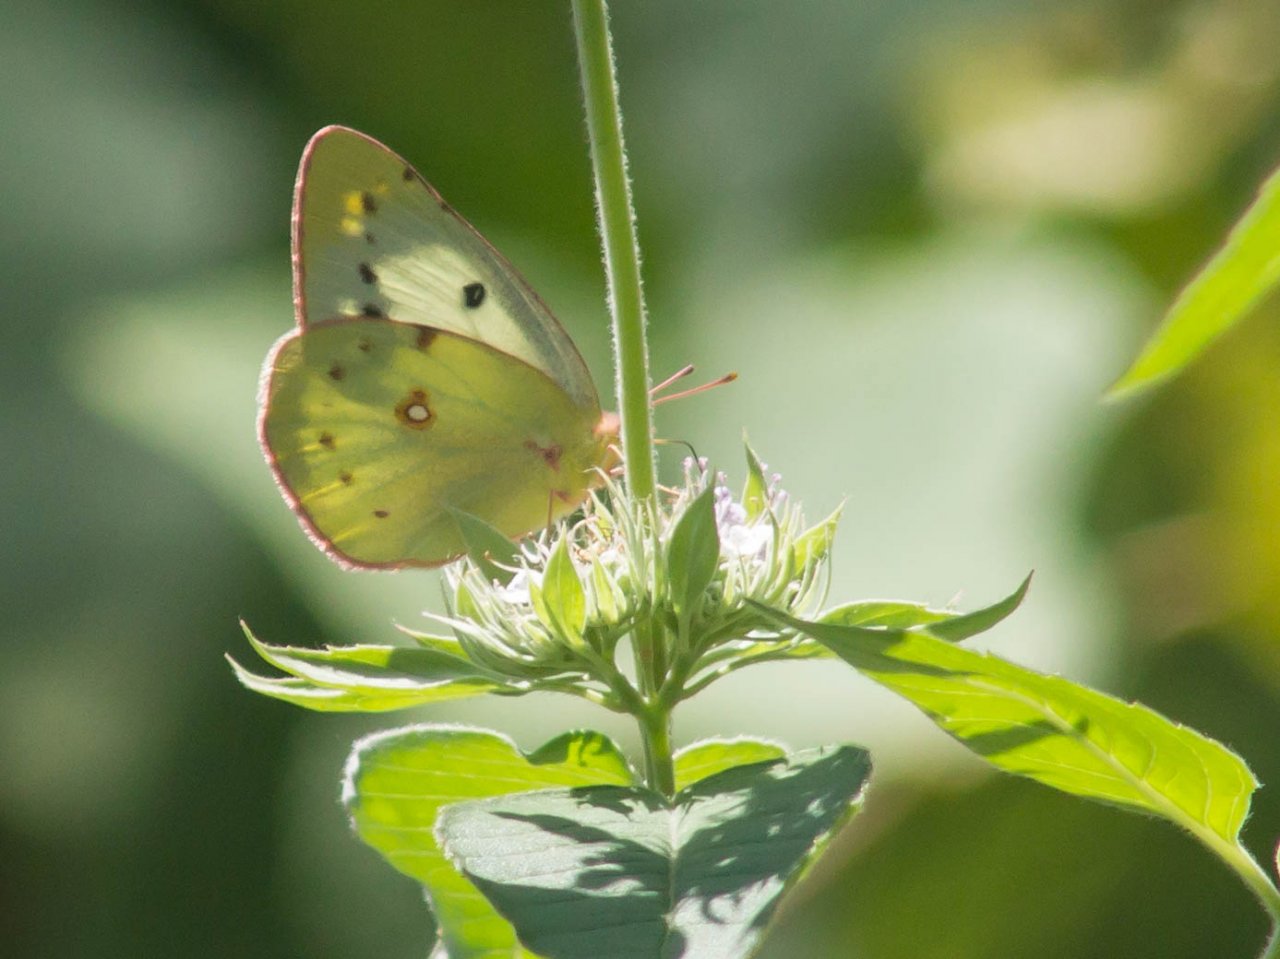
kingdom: Animalia
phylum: Arthropoda
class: Insecta
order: Lepidoptera
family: Pieridae
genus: Colias
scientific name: Colias
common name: Clouded Yellows
